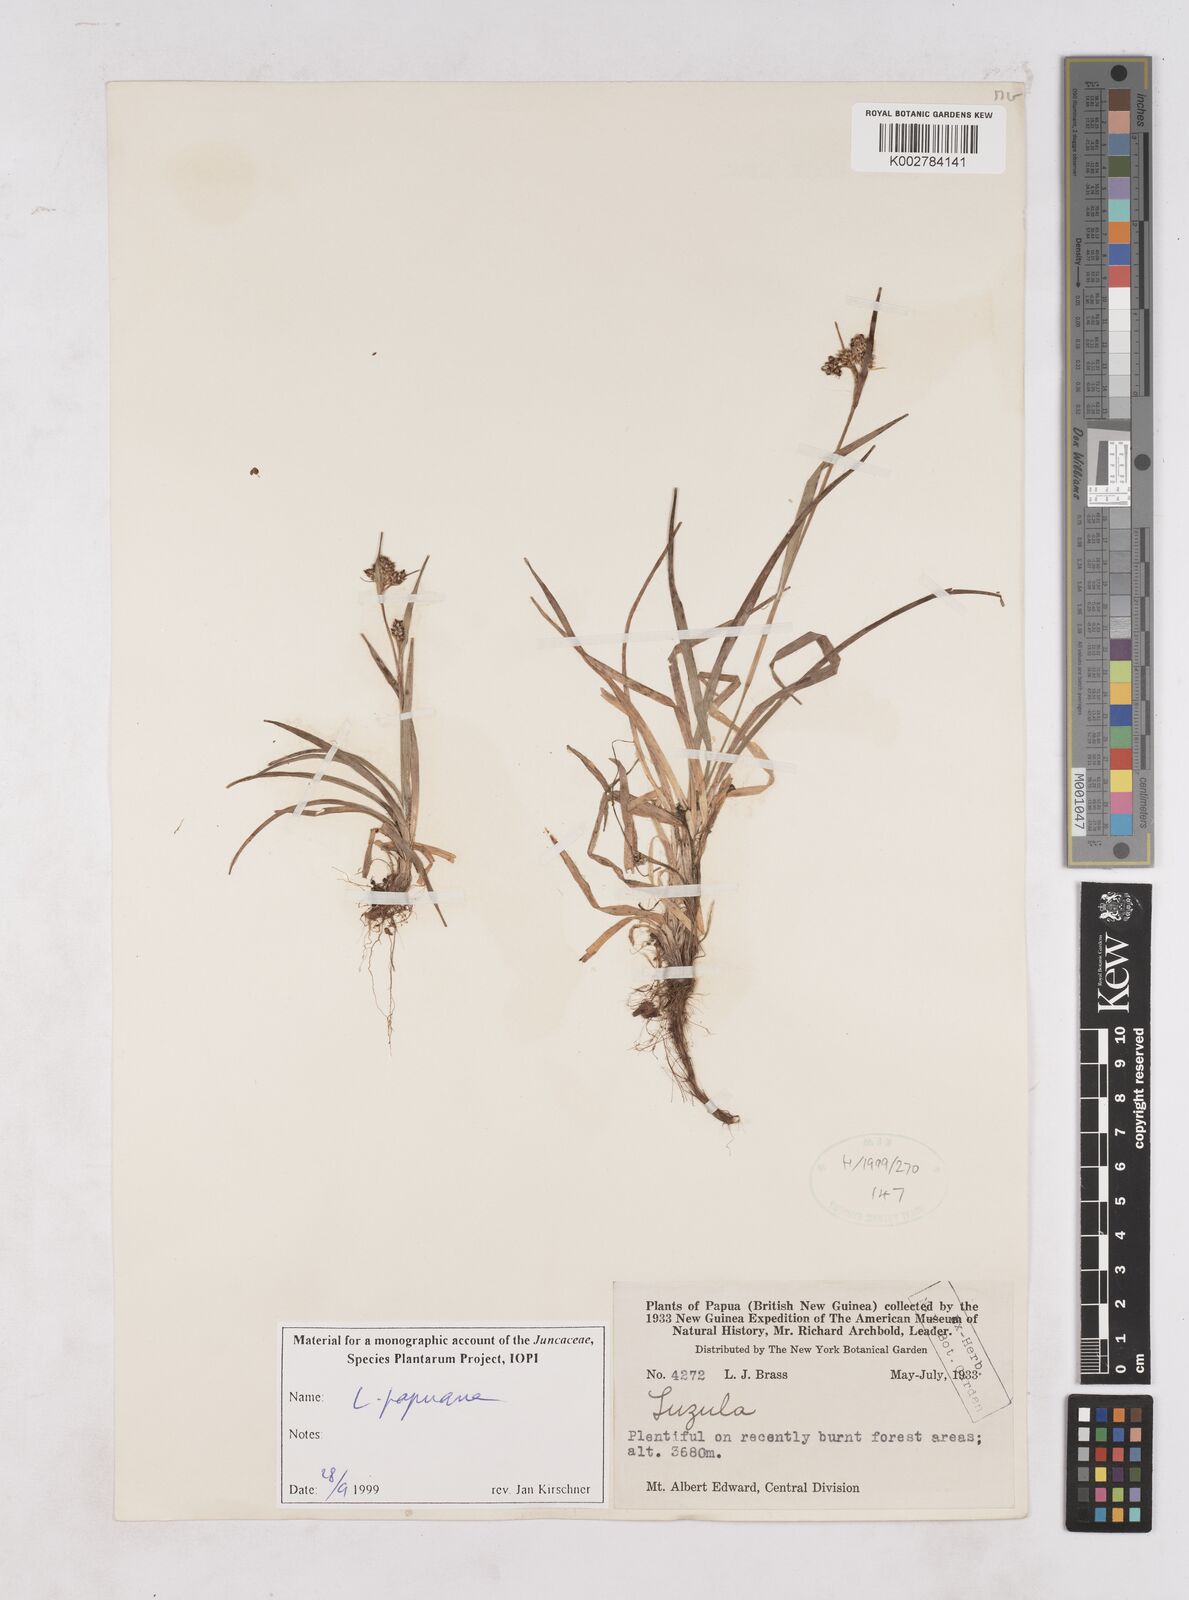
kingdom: Plantae
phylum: Tracheophyta
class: Liliopsida
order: Poales
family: Juncaceae
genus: Luzula
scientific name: Luzula papuana
